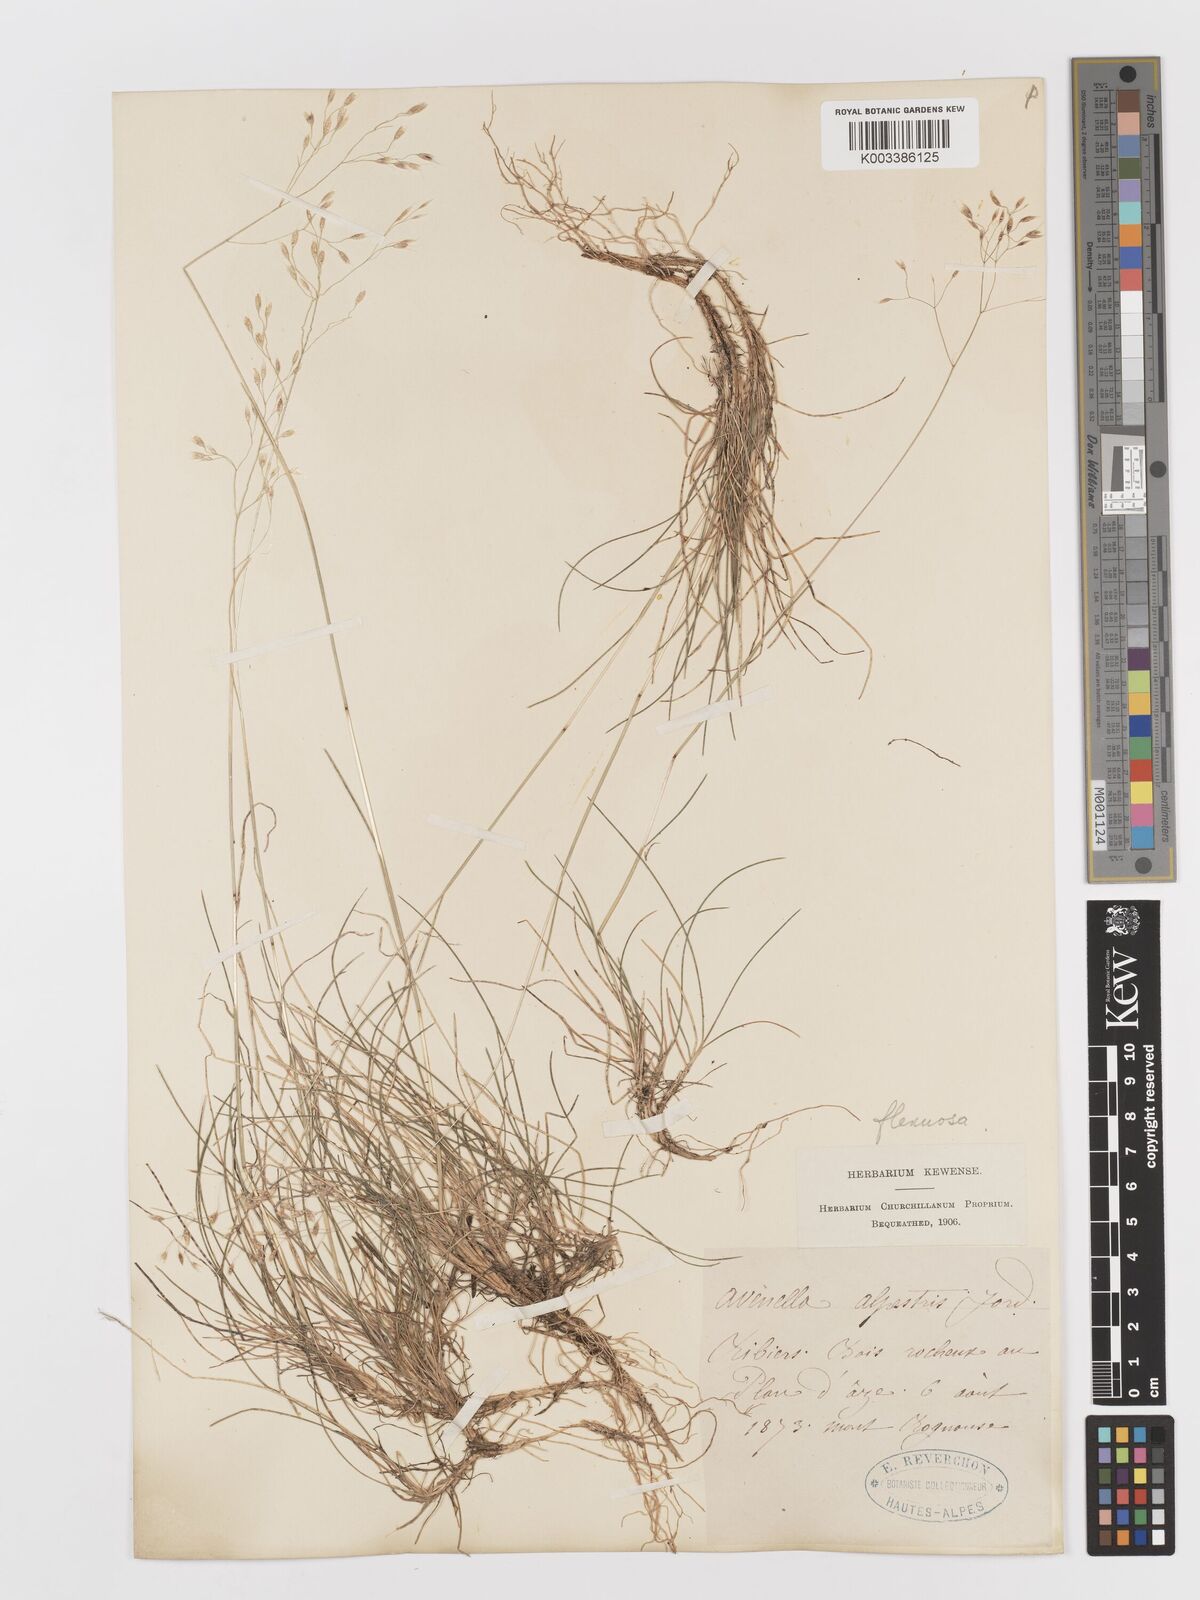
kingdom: Plantae
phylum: Tracheophyta
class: Liliopsida
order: Poales
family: Poaceae
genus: Avenella
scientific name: Avenella flexuosa
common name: Wavy hairgrass
